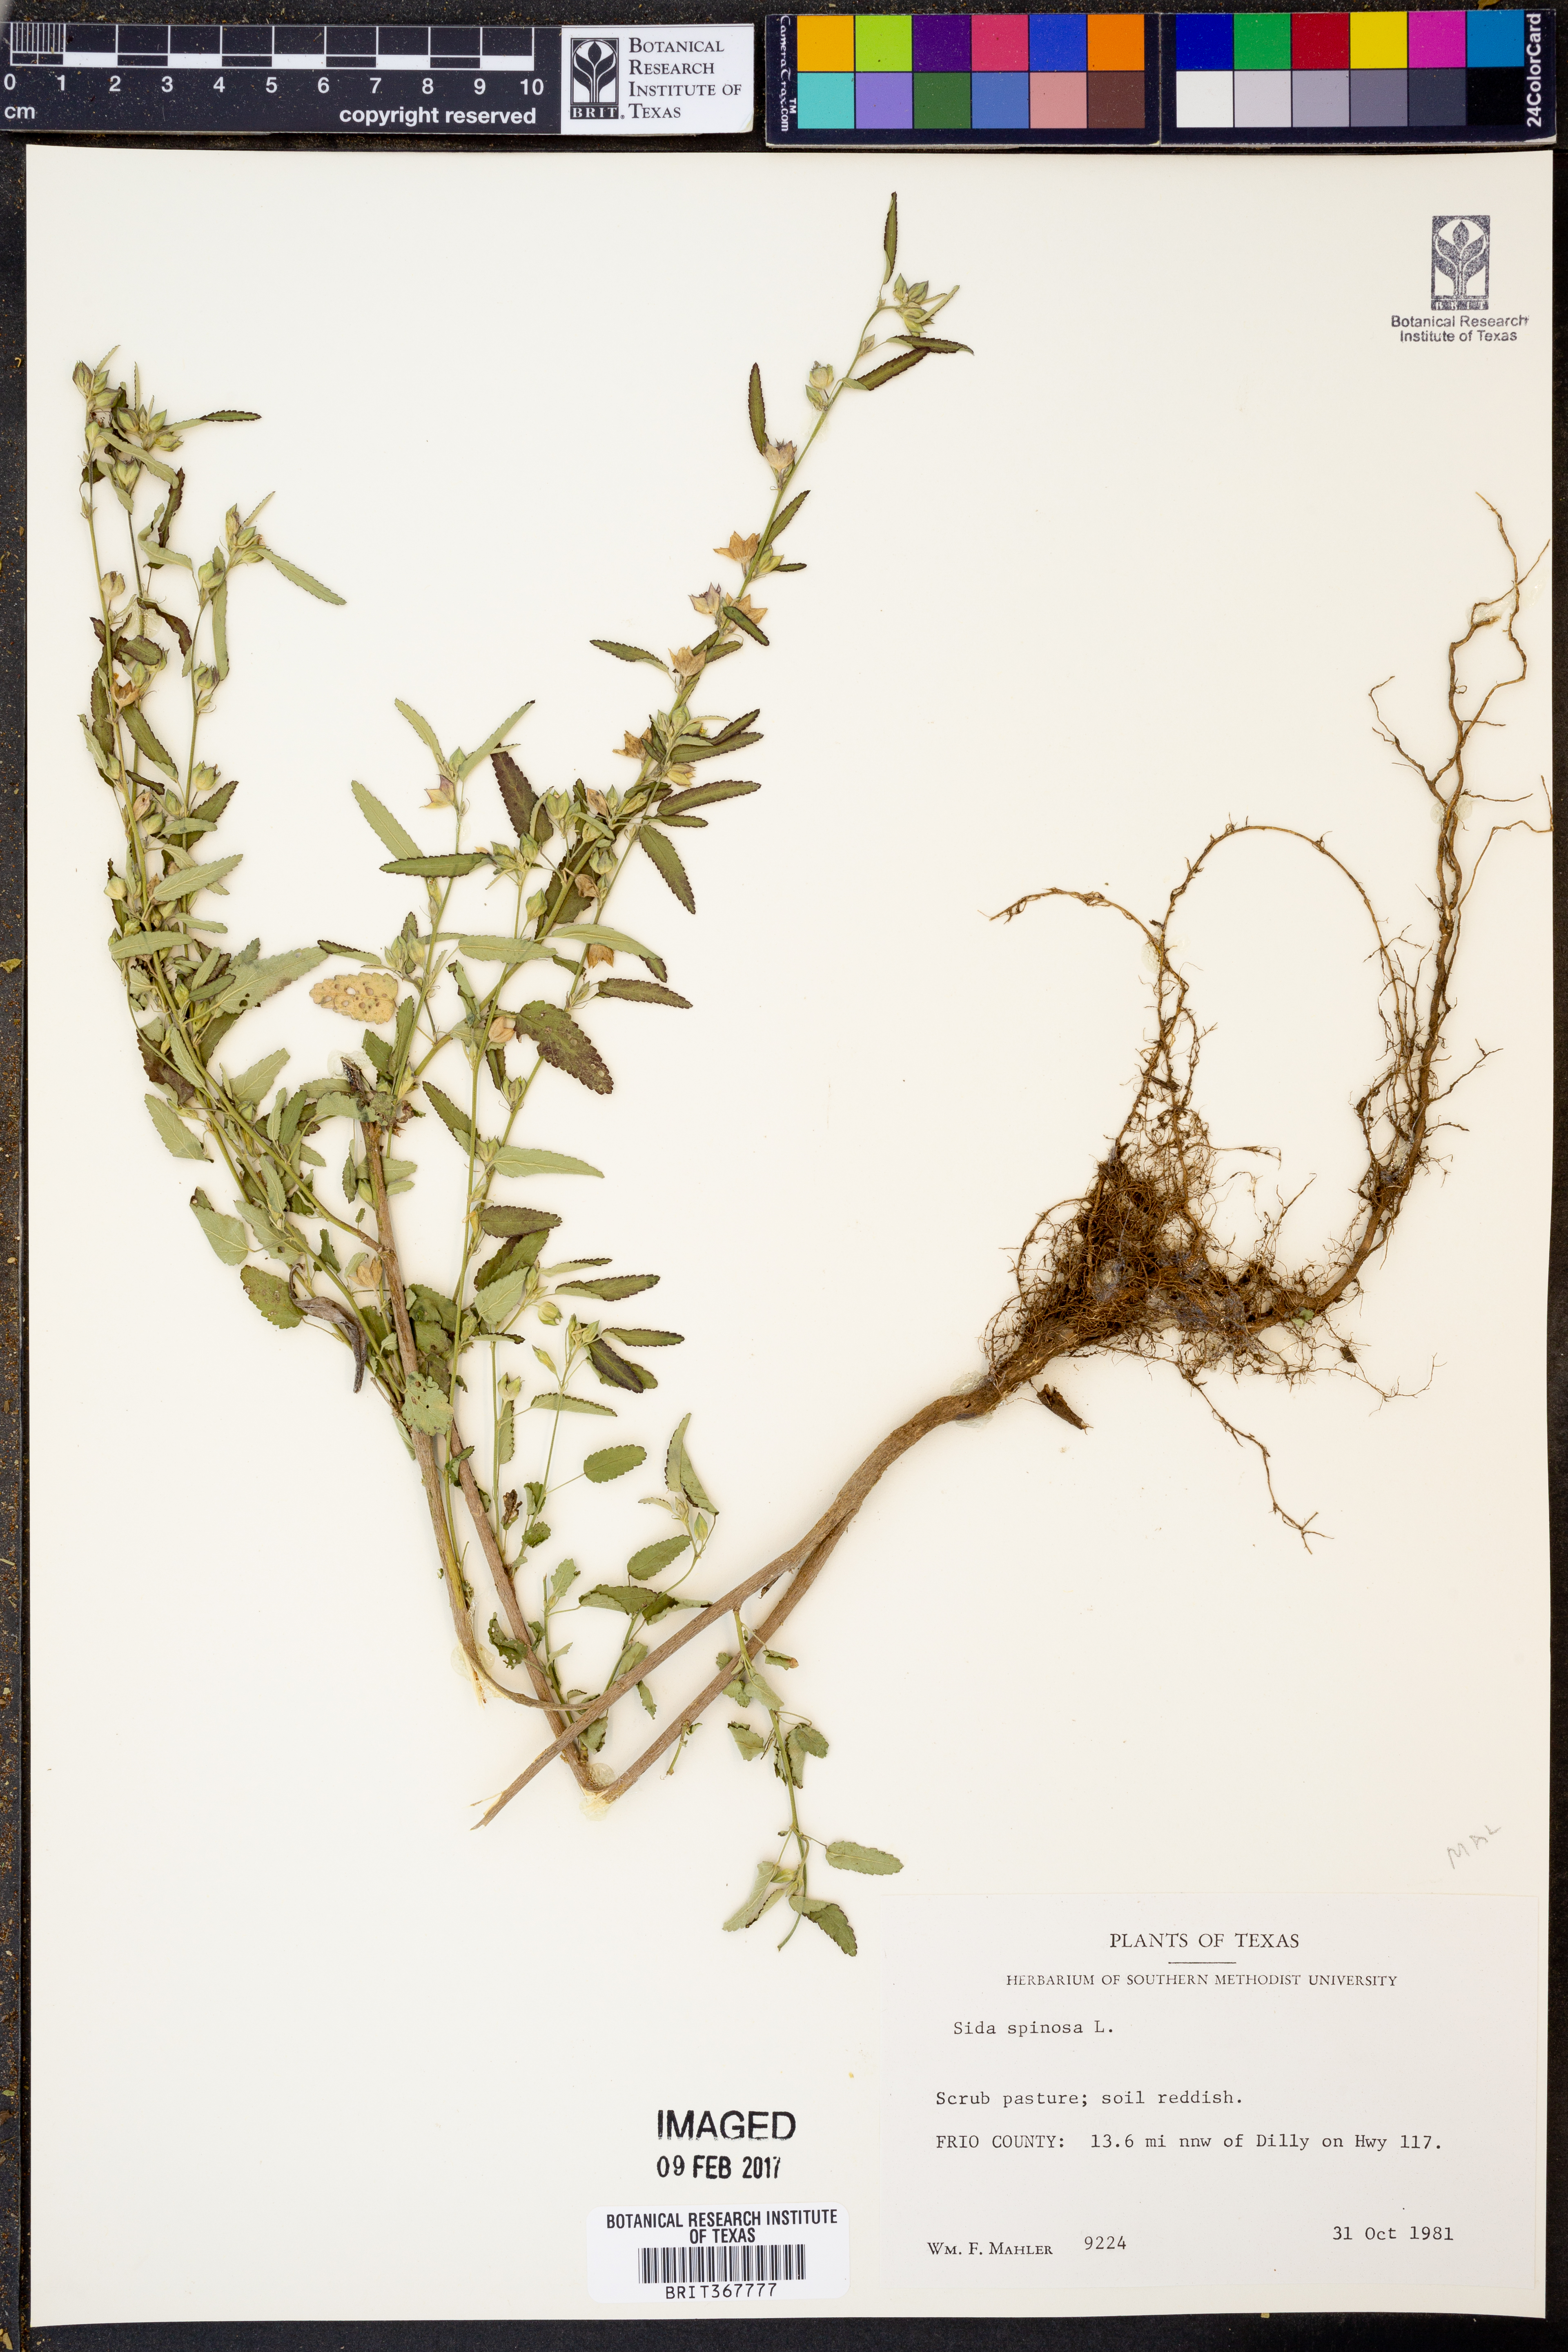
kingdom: Plantae
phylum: Tracheophyta
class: Magnoliopsida
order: Malvales
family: Malvaceae
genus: Sida
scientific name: Sida spinosa
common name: Prickly fanpetals
